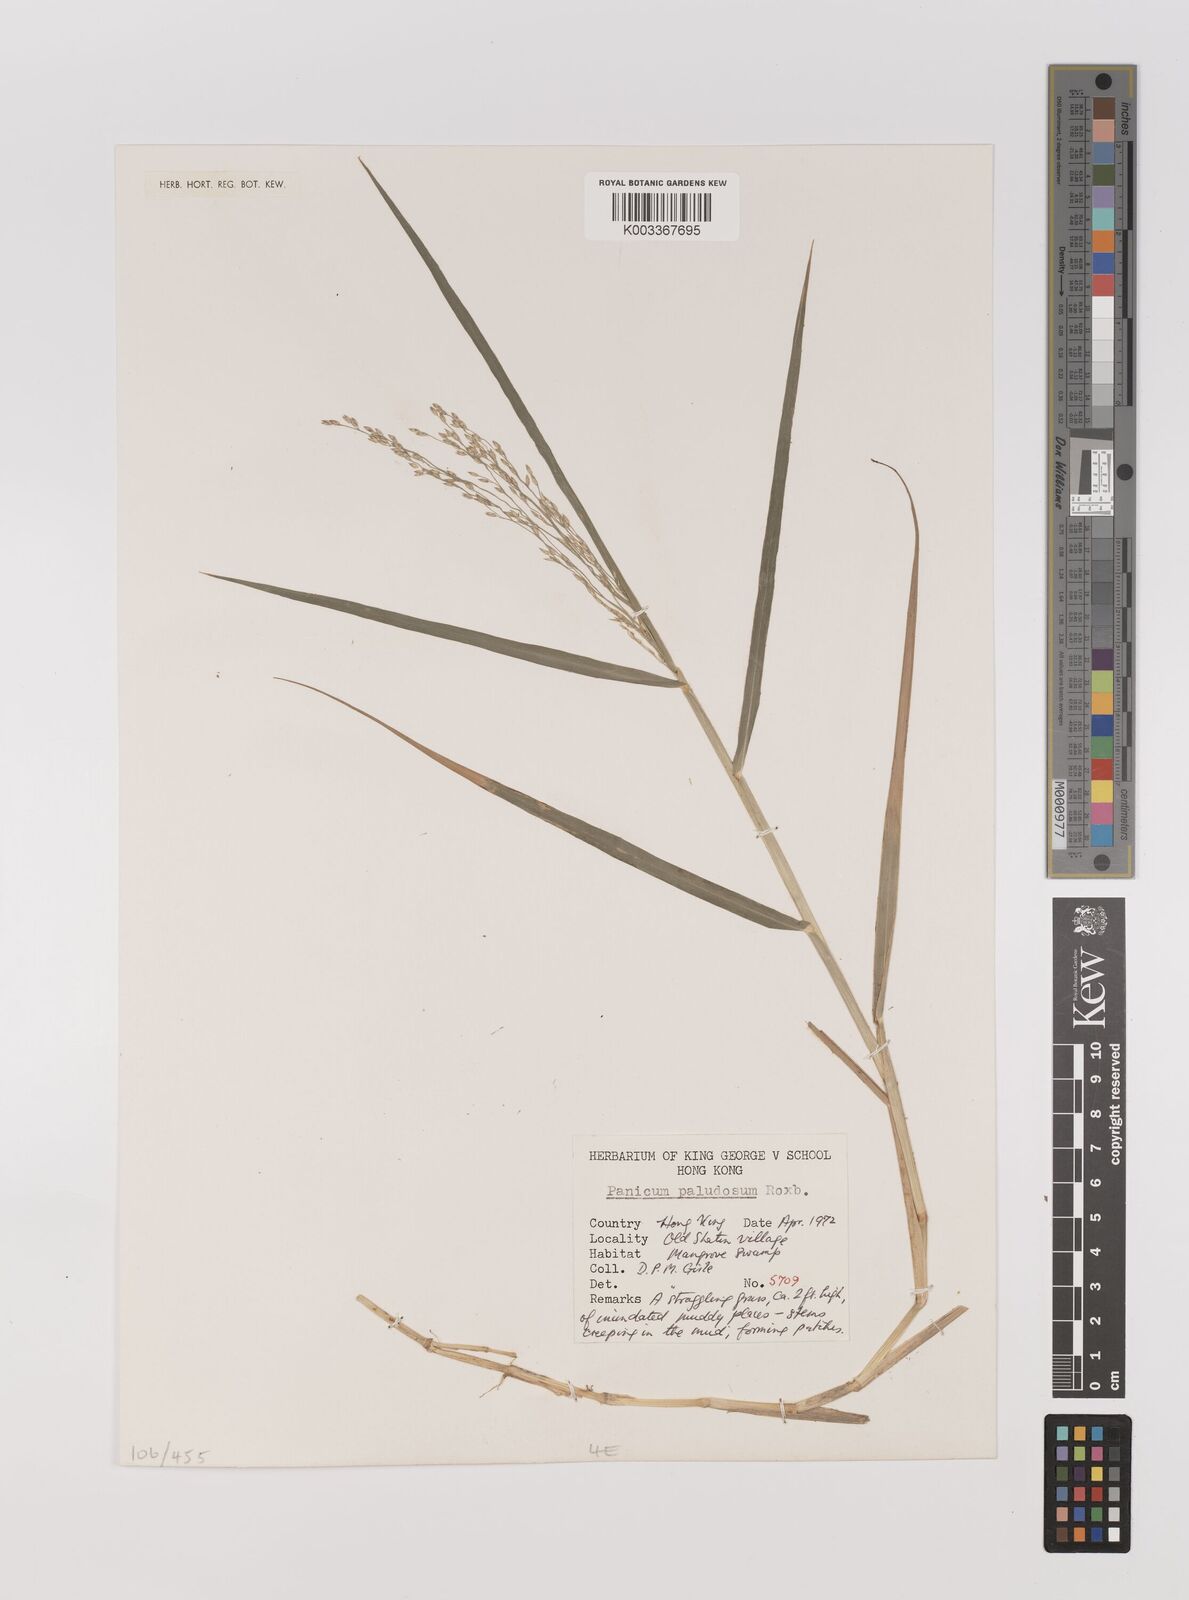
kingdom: Plantae
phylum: Tracheophyta
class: Liliopsida
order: Poales
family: Poaceae
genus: Panicum
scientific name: Panicum dichotomiflorum
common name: Autumn millet
